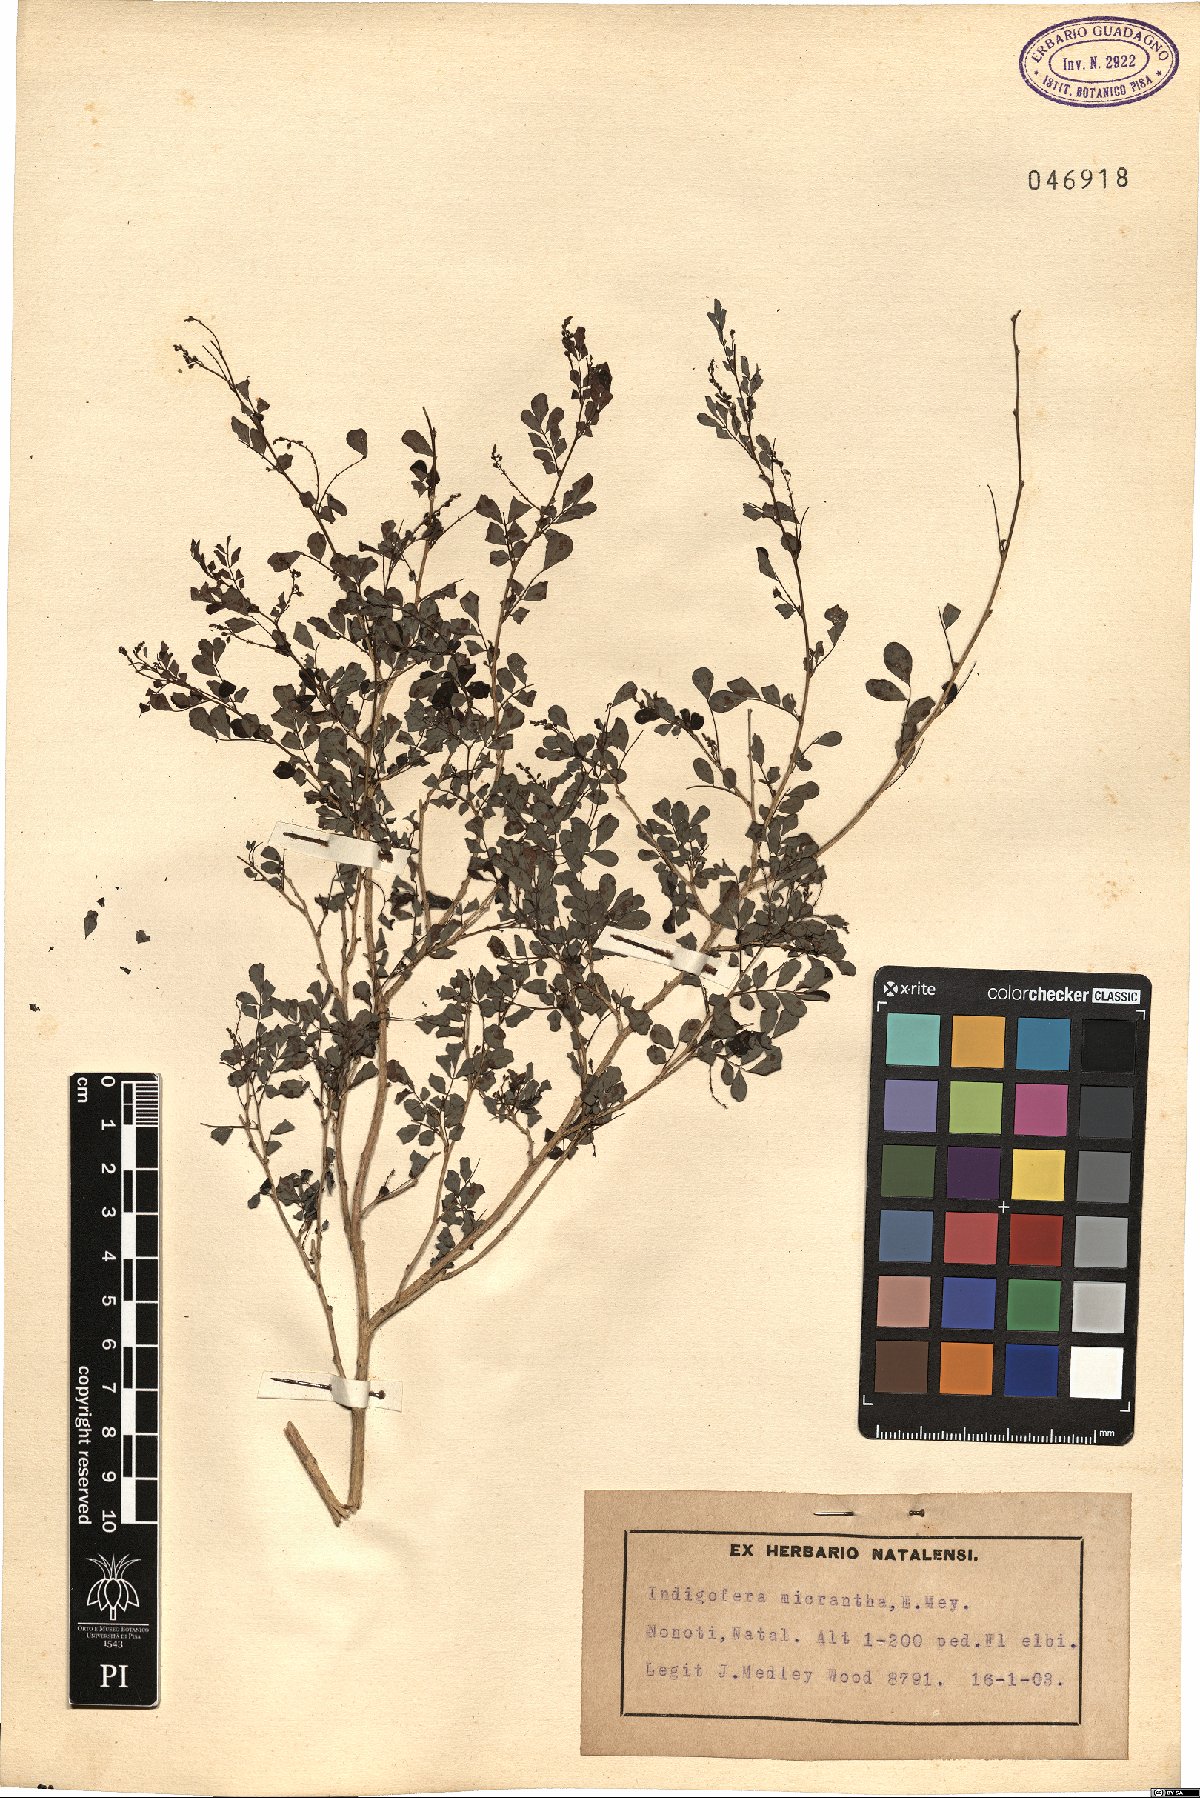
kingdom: Plantae
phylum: Tracheophyta
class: Magnoliopsida
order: Fabales
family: Fabaceae
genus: Indigofera
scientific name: Indigofera micrantha
